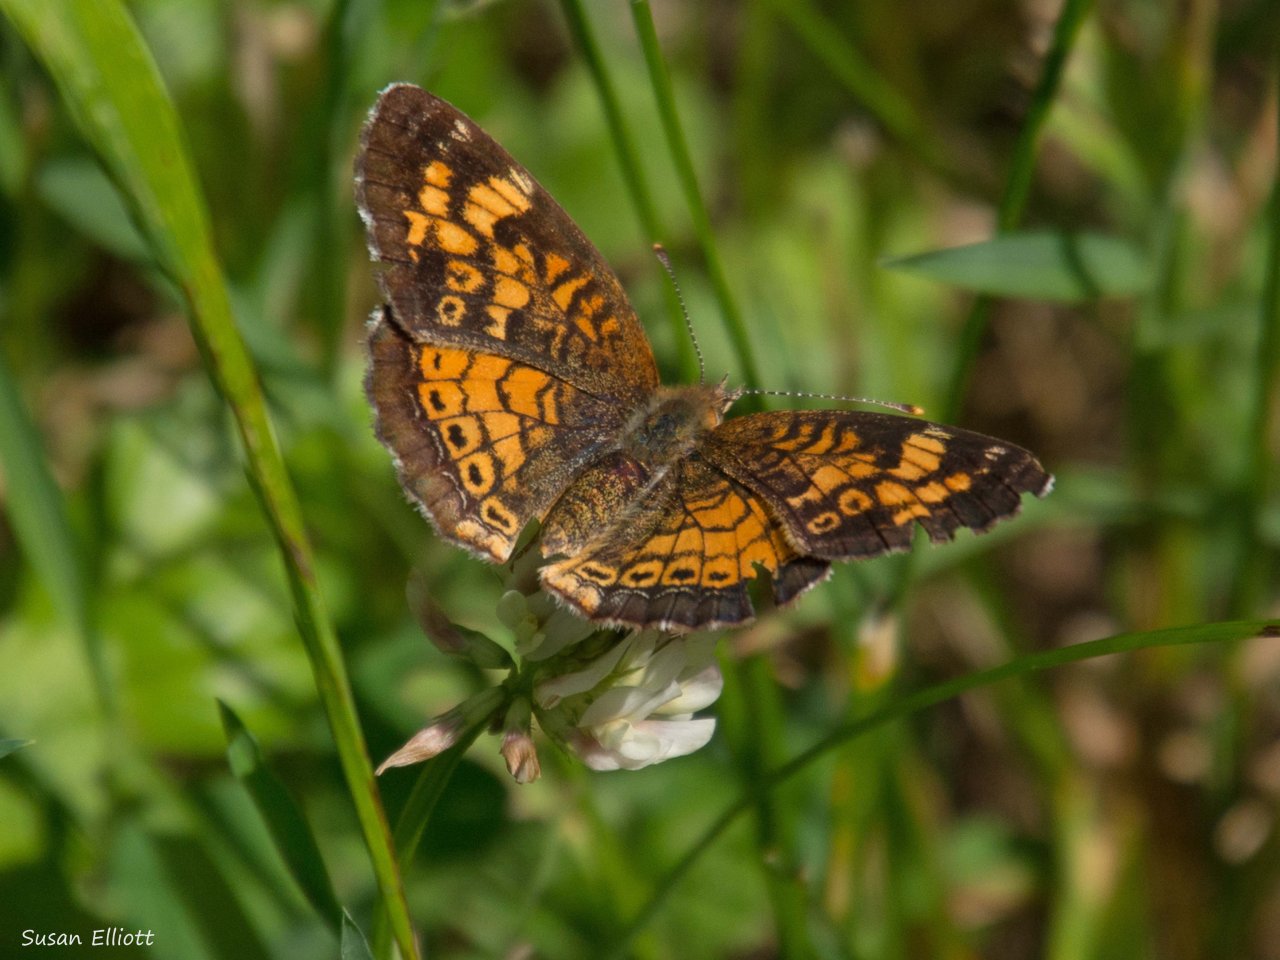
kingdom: Animalia
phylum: Arthropoda
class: Insecta
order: Lepidoptera
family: Nymphalidae
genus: Phyciodes
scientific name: Phyciodes
